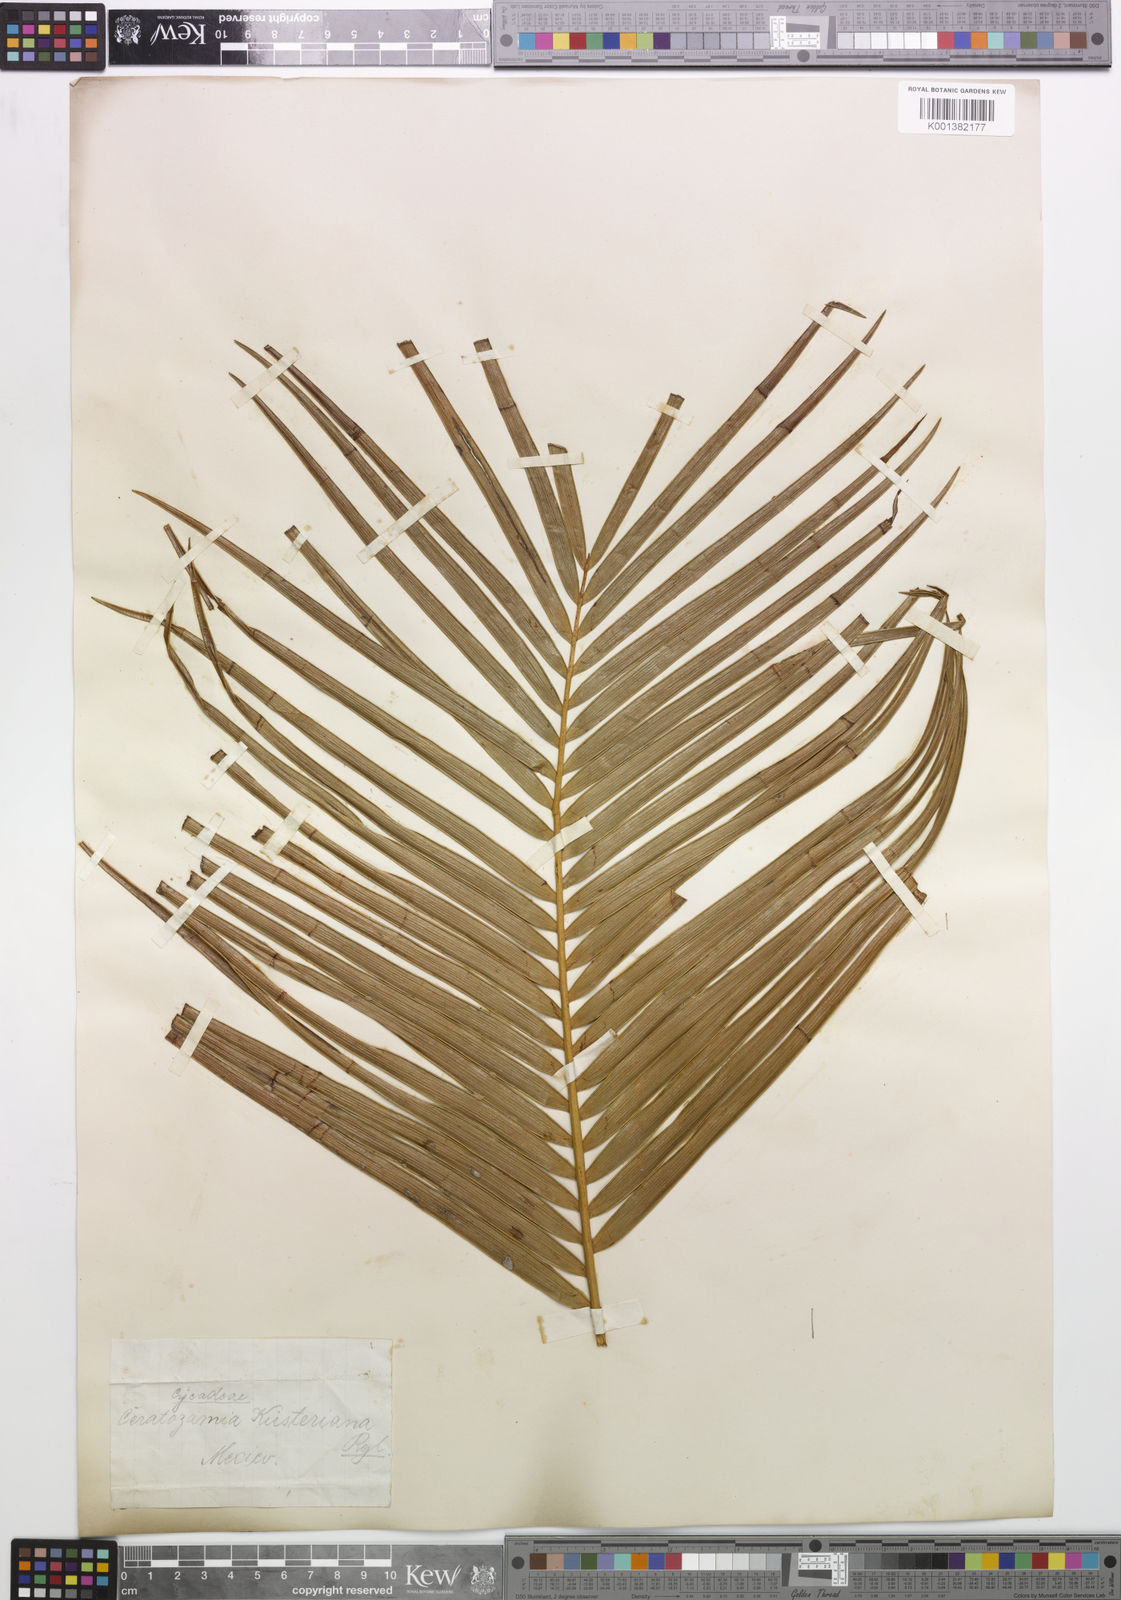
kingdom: Plantae
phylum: Tracheophyta
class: Cycadopsida
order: Cycadales
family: Zamiaceae
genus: Ceratozamia
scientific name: Ceratozamia kuesteriana
